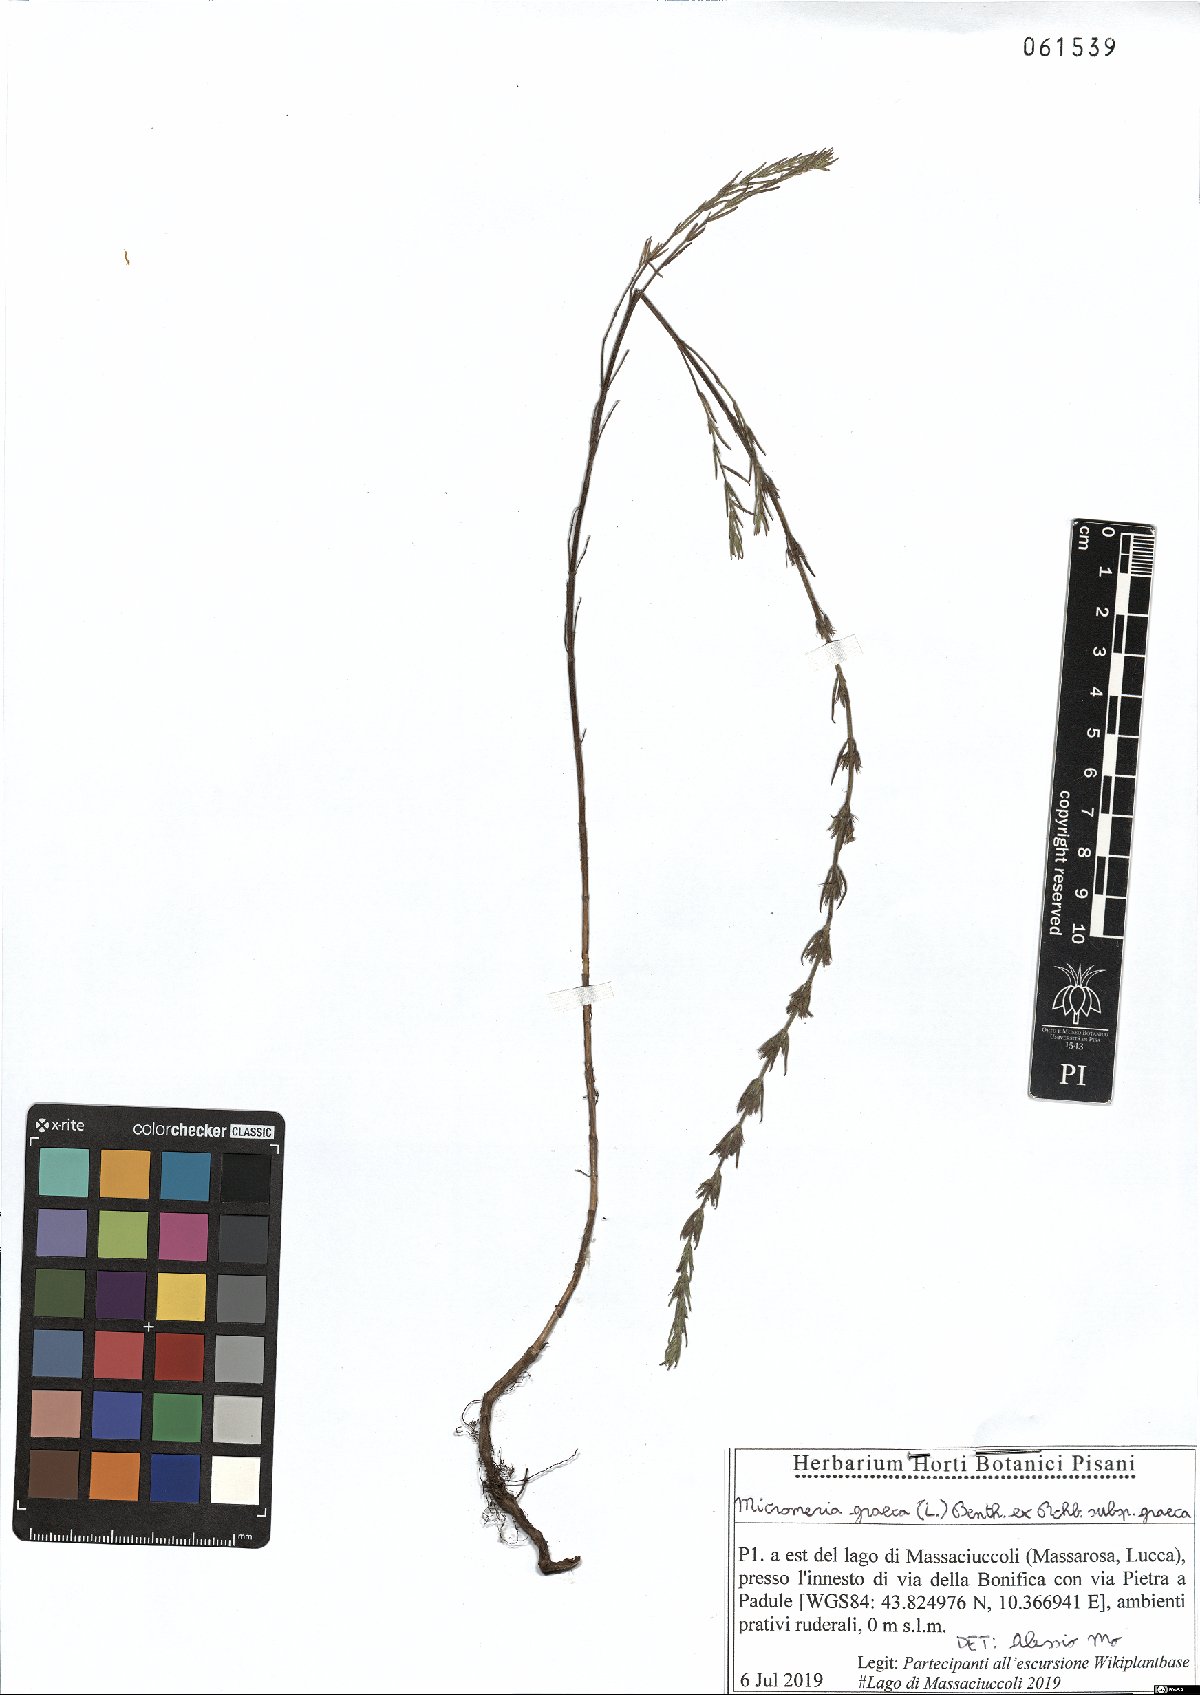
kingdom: Plantae
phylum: Tracheophyta
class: Magnoliopsida
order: Lamiales
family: Lamiaceae
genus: Micromeria
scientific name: Micromeria graeca
